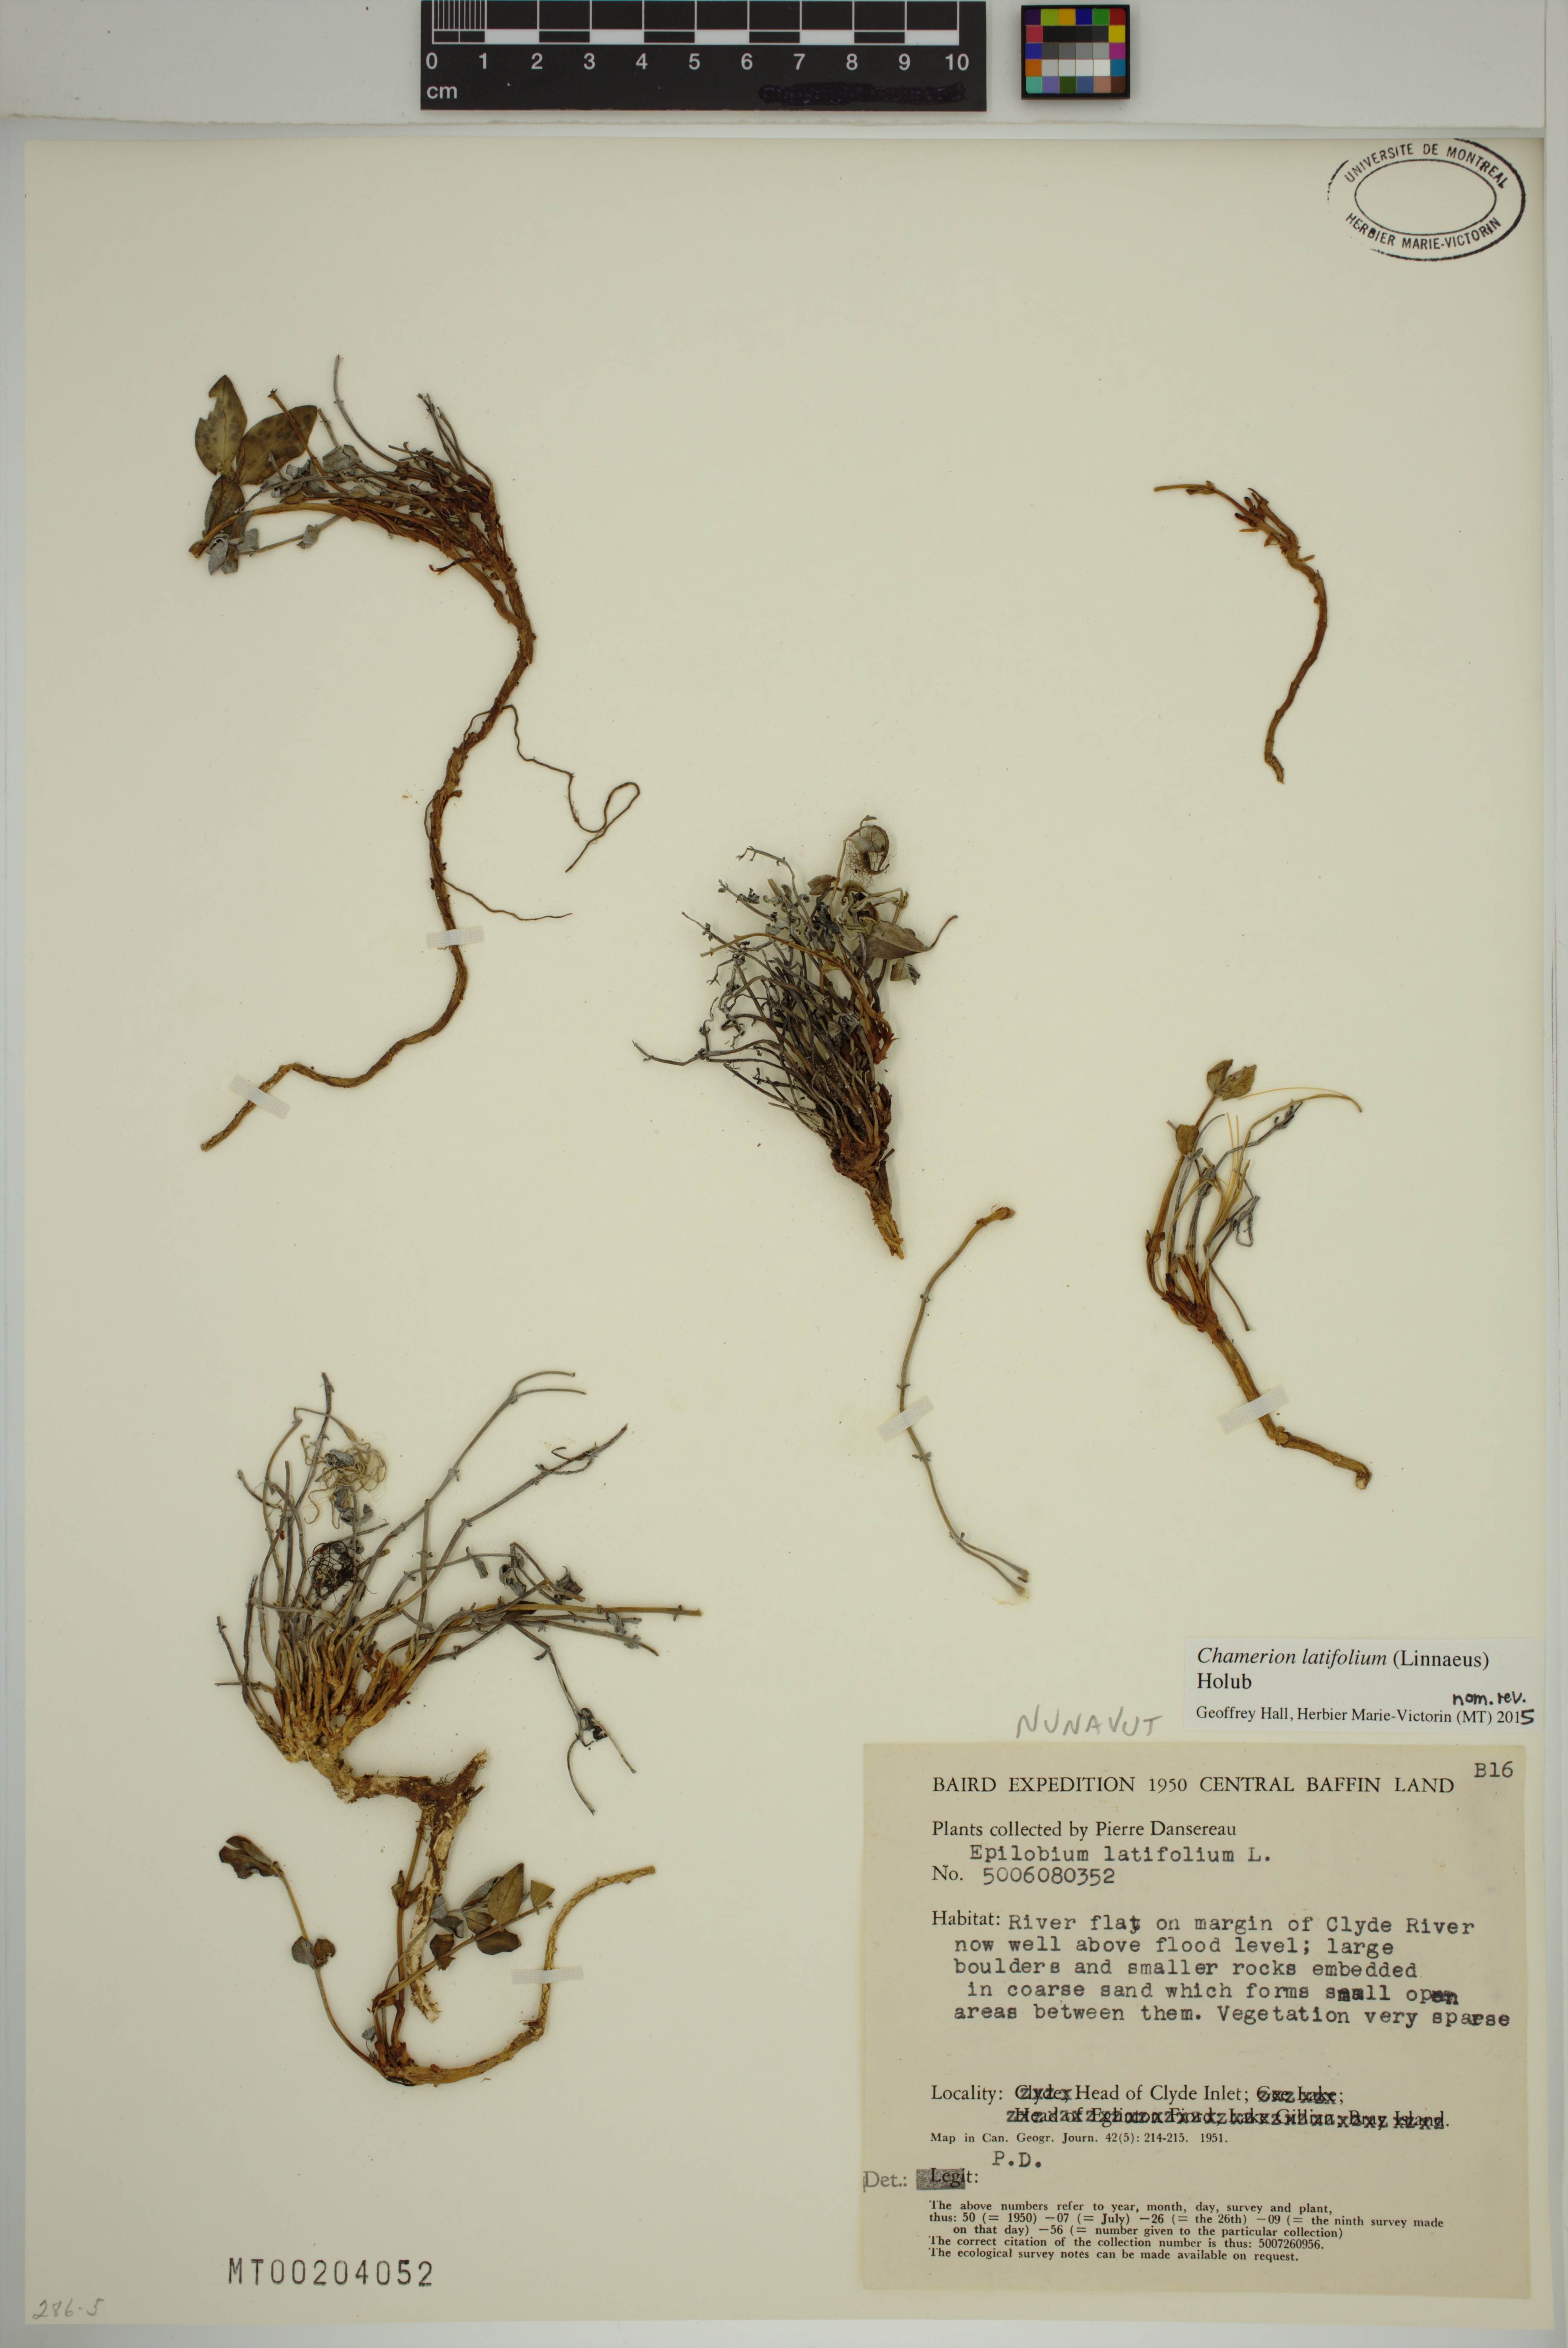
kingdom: Plantae
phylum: Tracheophyta
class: Magnoliopsida
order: Myrtales
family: Onagraceae
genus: Chamaenerion
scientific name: Chamaenerion latifolium
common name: Dwarf fireweed
